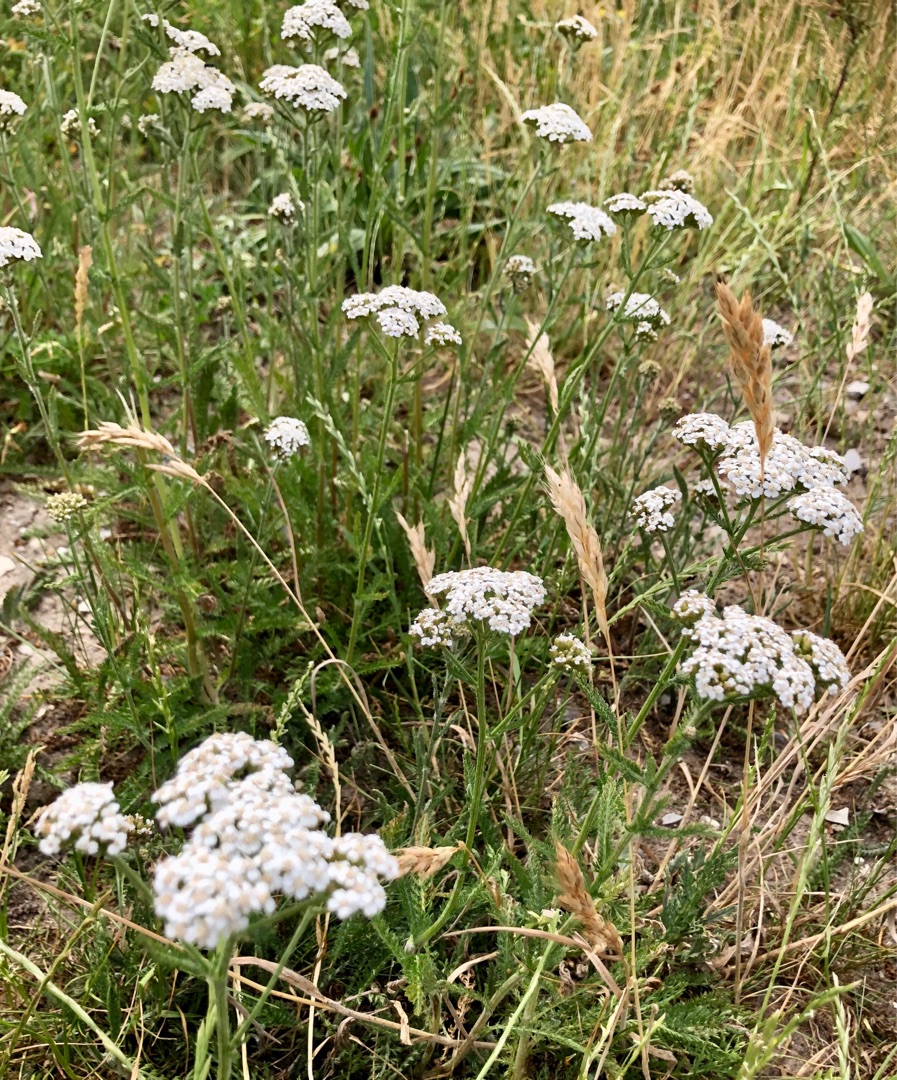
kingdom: Plantae
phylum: Tracheophyta
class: Magnoliopsida
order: Asterales
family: Asteraceae
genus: Achillea
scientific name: Achillea millefolium
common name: Almindelig røllike
